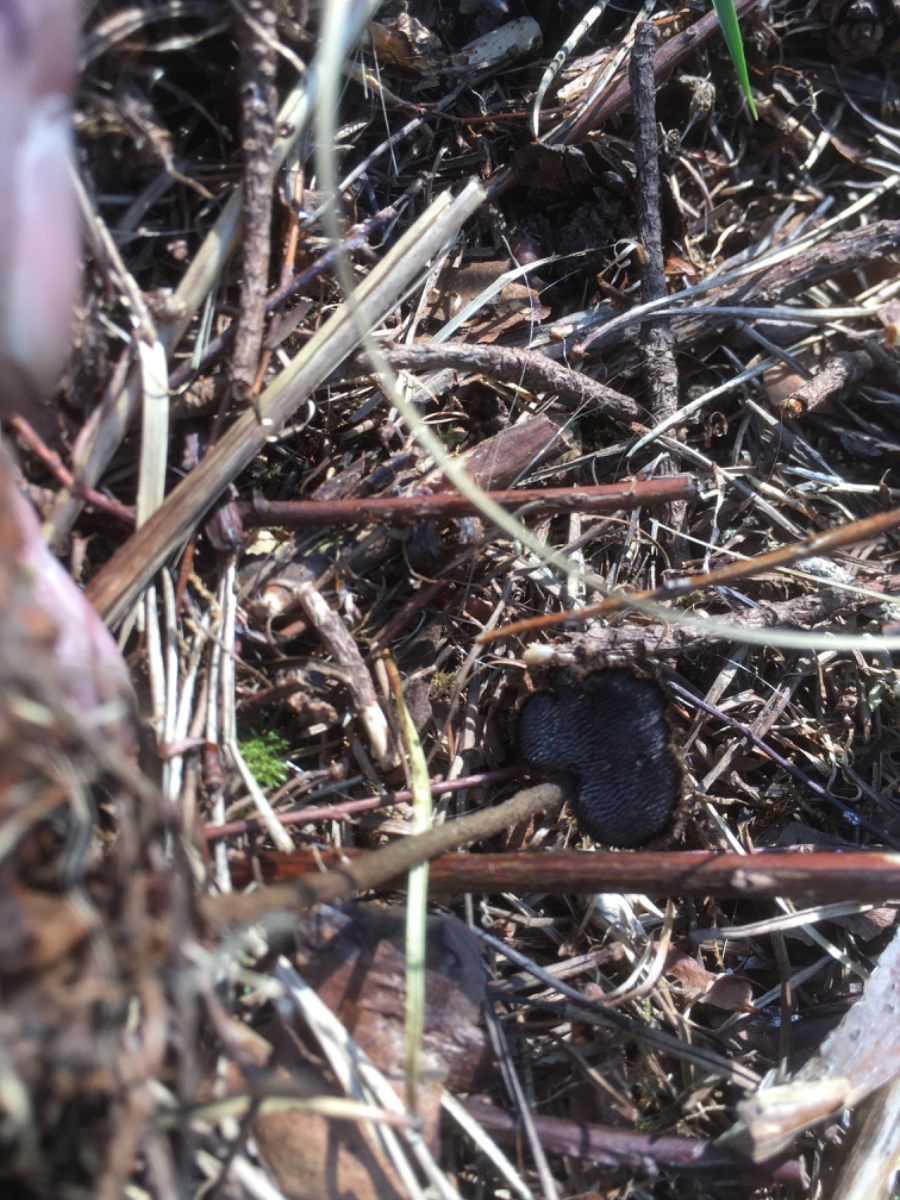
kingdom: Fungi
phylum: Basidiomycota
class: Agaricomycetes
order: Russulales
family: Auriscalpiaceae
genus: Auriscalpium
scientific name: Auriscalpium vulgare
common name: koglepigsvamp
